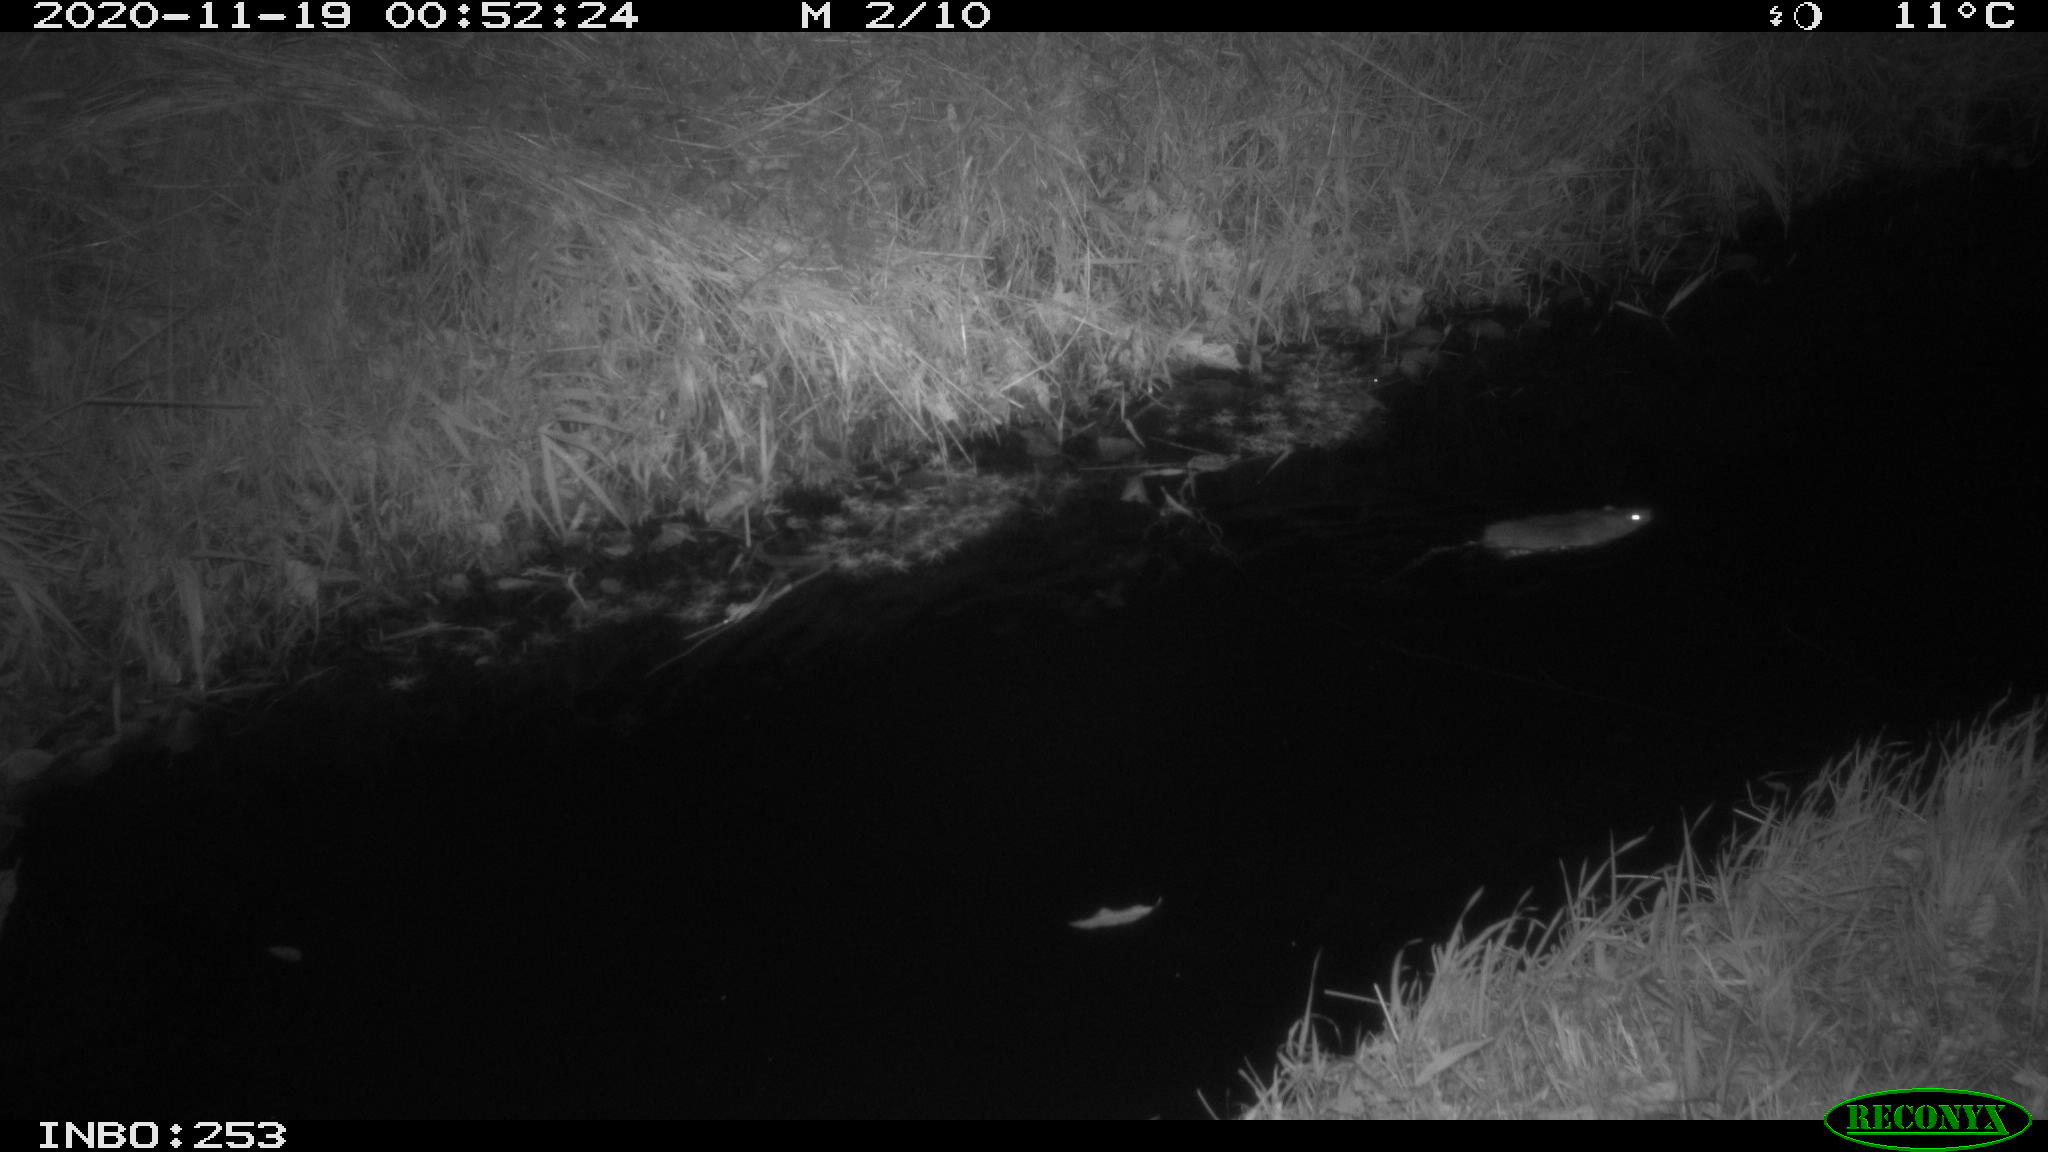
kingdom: Animalia
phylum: Chordata
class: Mammalia
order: Rodentia
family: Muridae
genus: Rattus
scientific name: Rattus norvegicus
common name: Brown rat
